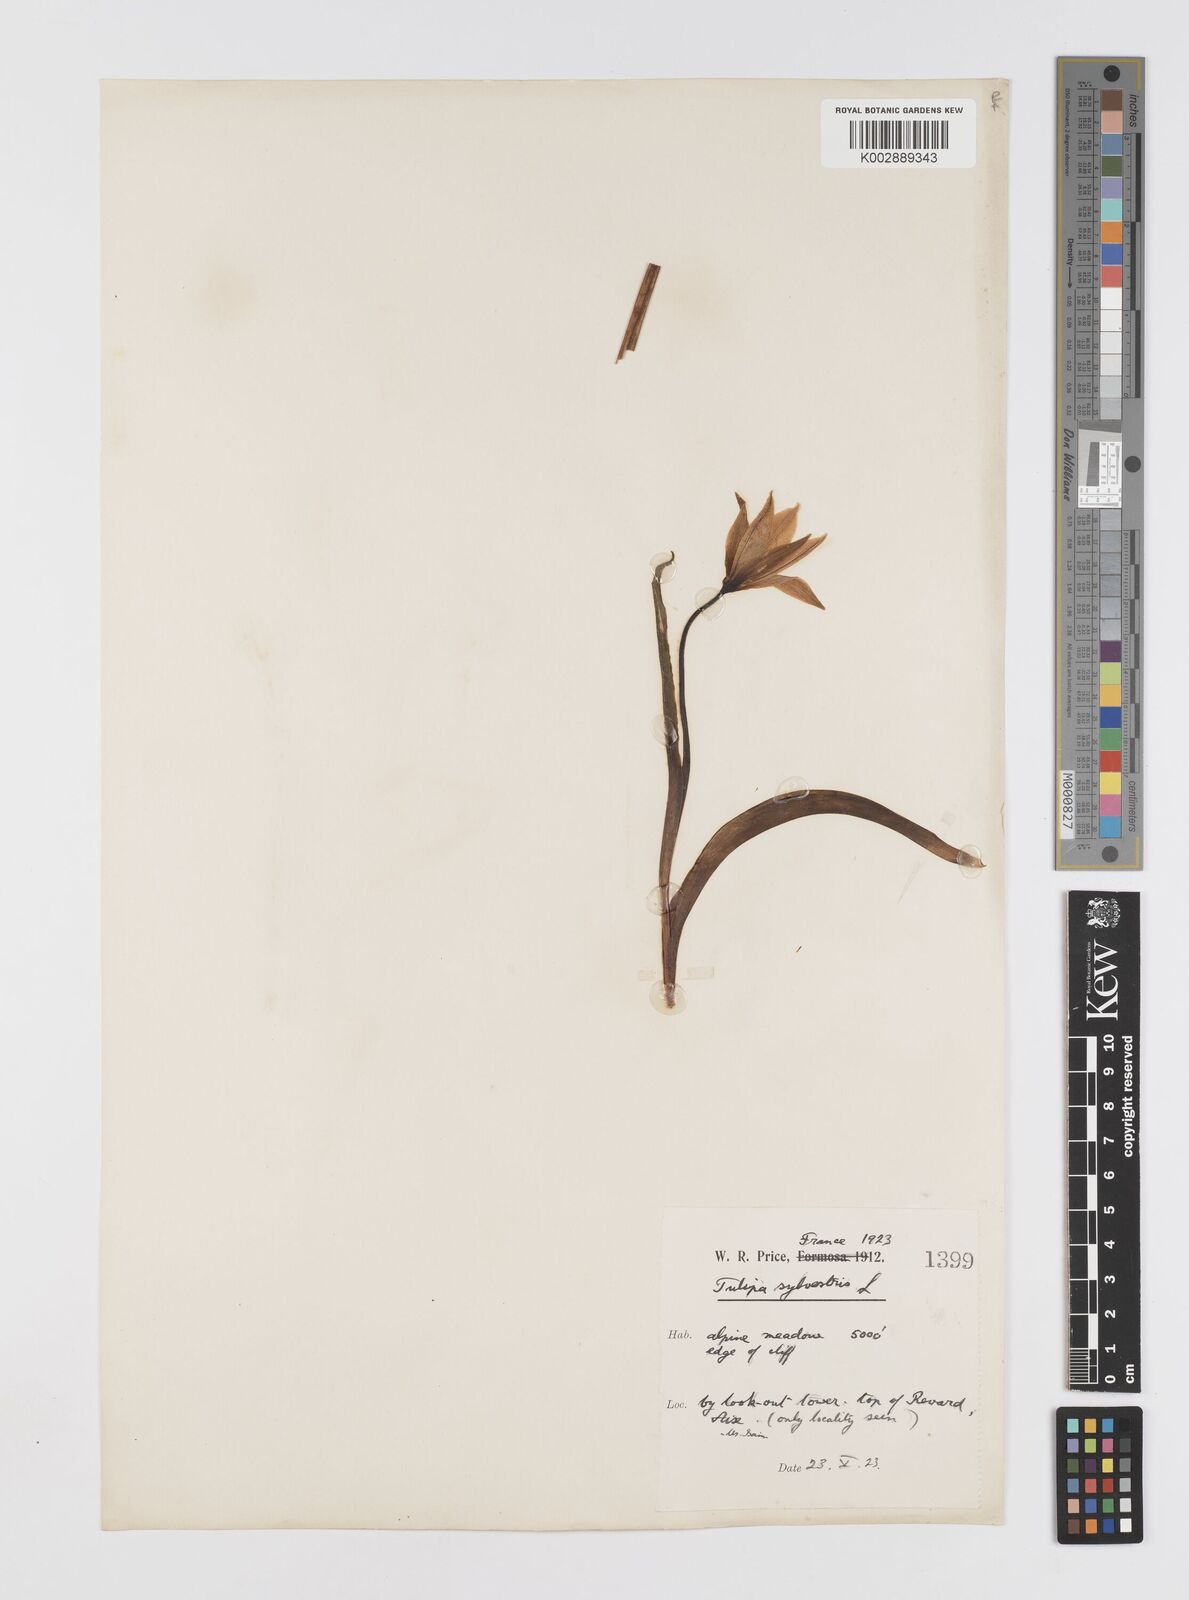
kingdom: Plantae
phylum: Tracheophyta
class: Liliopsida
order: Liliales
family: Liliaceae
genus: Tulipa
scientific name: Tulipa sylvestris
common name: Wild tulip
